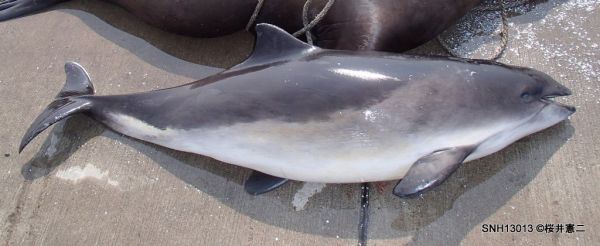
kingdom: Animalia
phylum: Chordata
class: Mammalia
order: Cetacea
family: Phocoenidae
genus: Phocoena
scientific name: Phocoena phocoena
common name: Harbour porpoise
